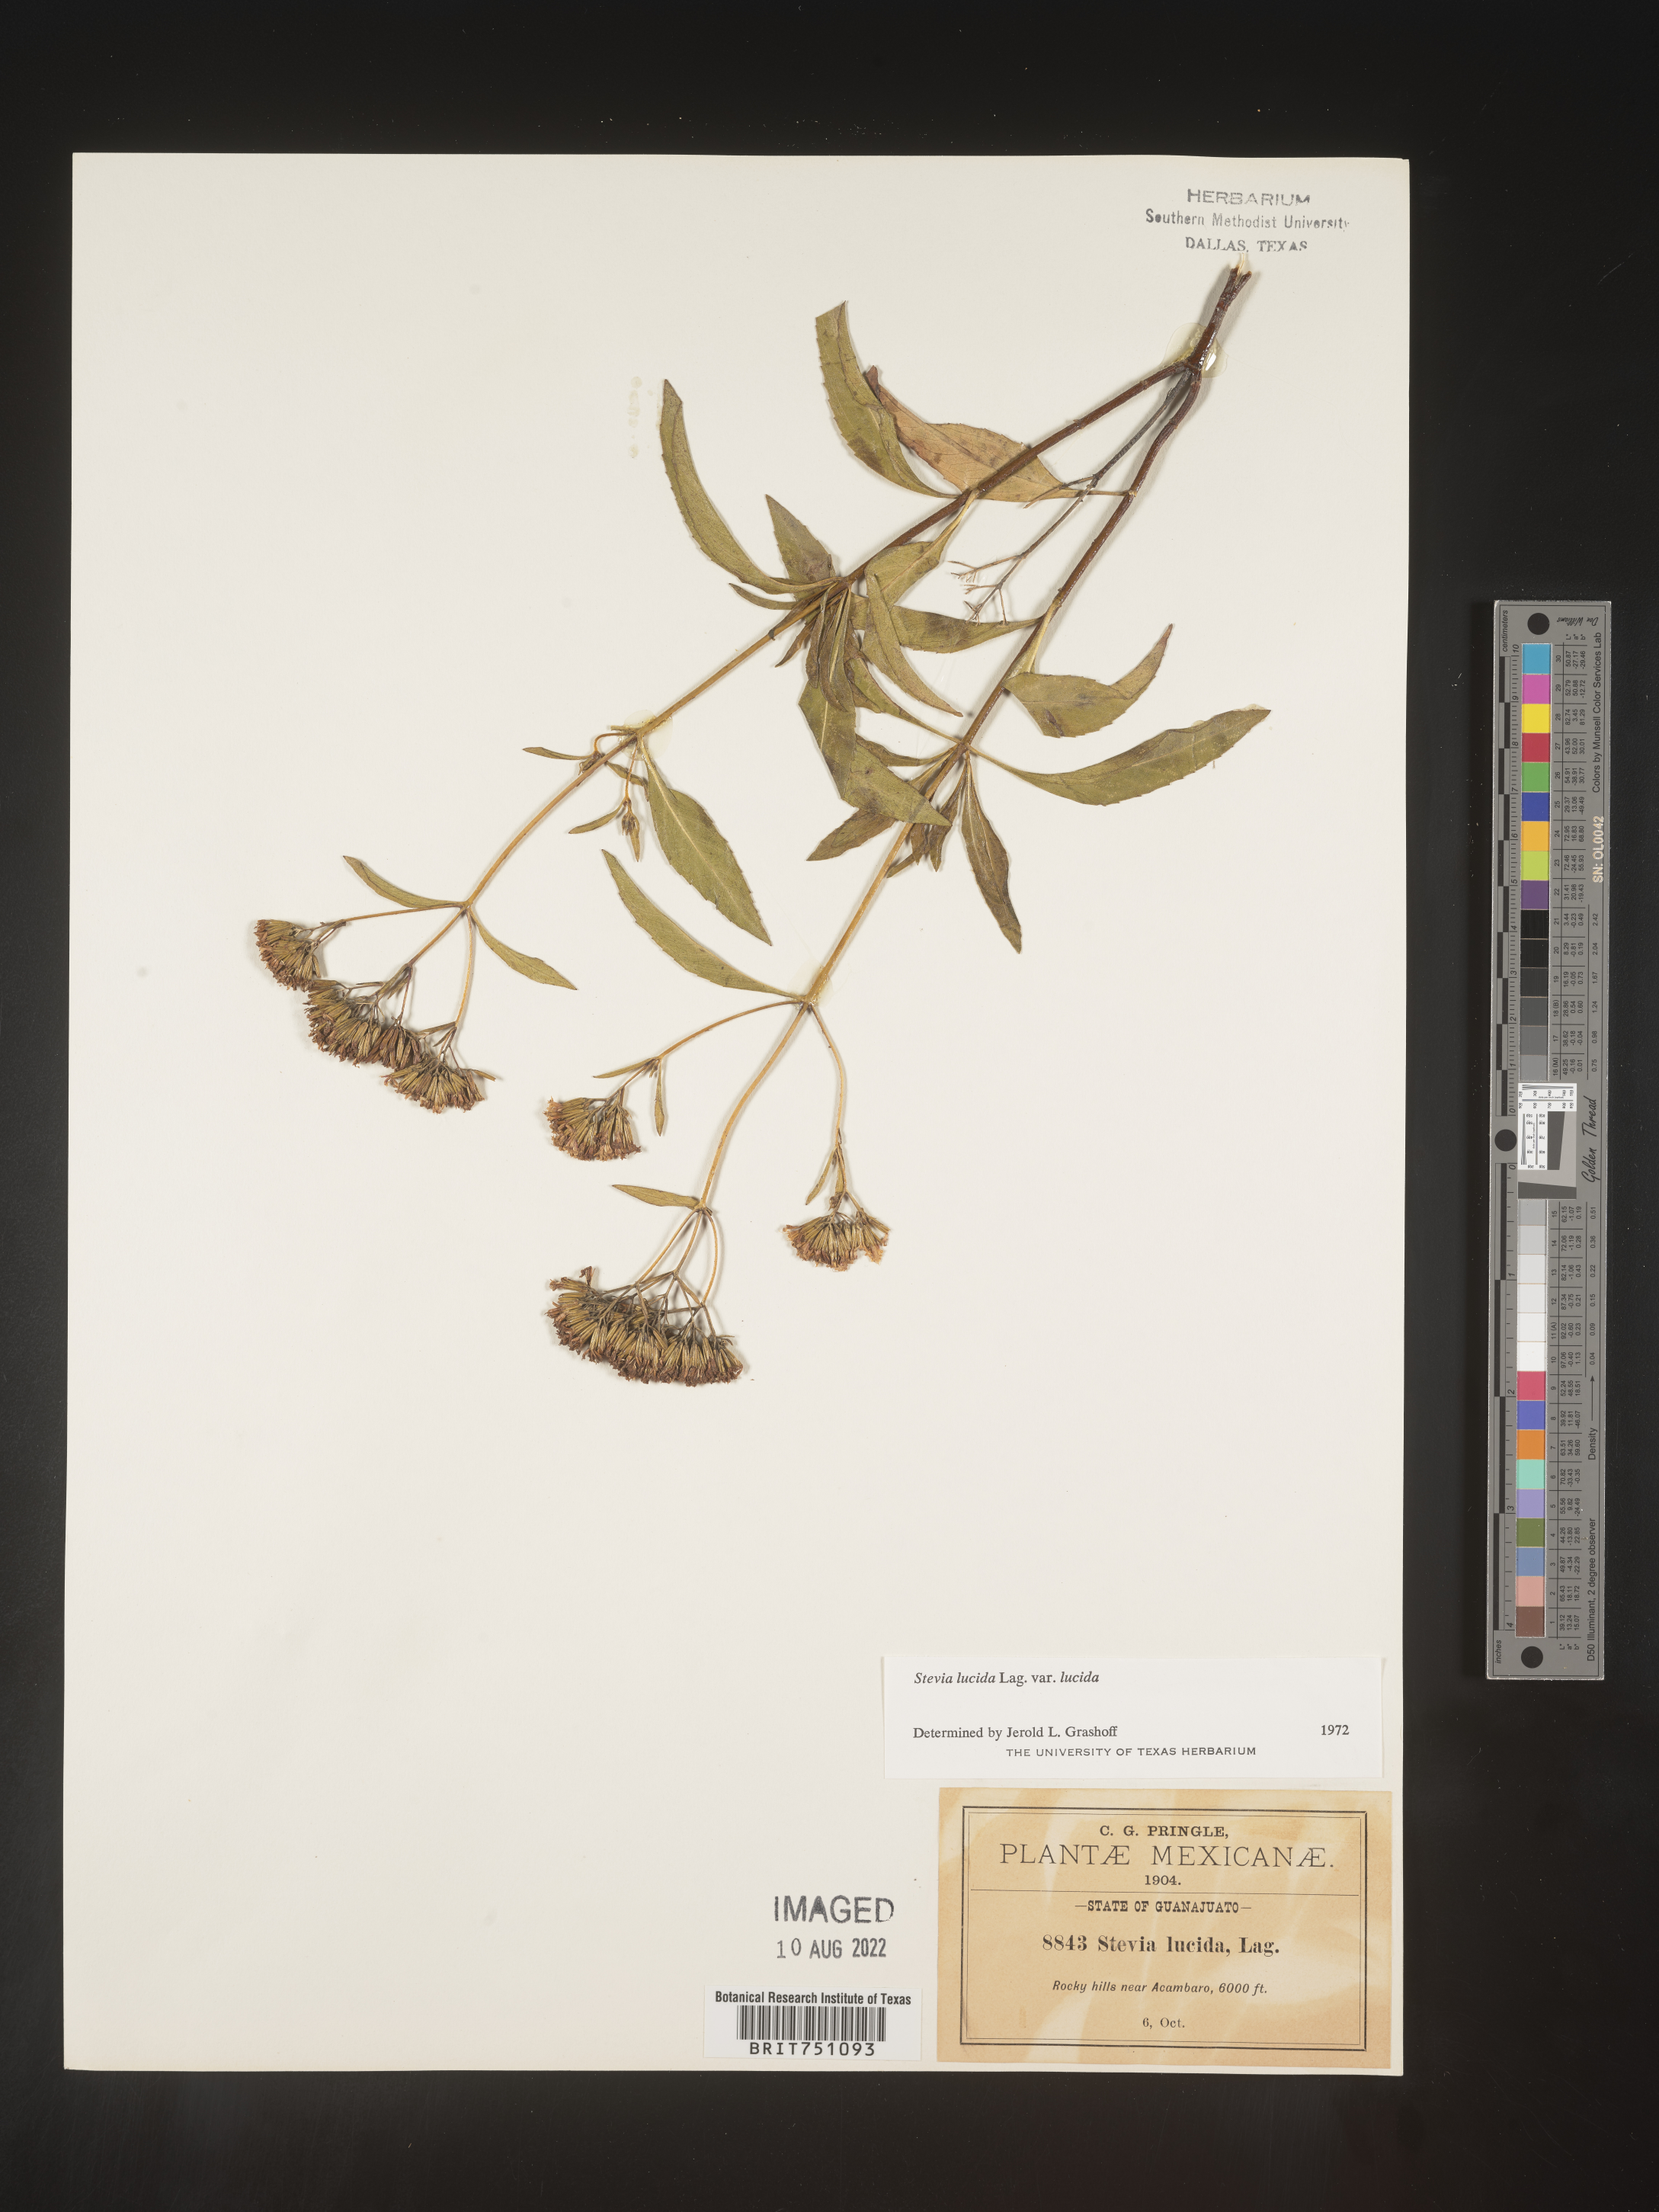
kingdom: Plantae
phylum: Tracheophyta
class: Magnoliopsida
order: Asterales
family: Asteraceae
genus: Stevia
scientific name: Stevia
